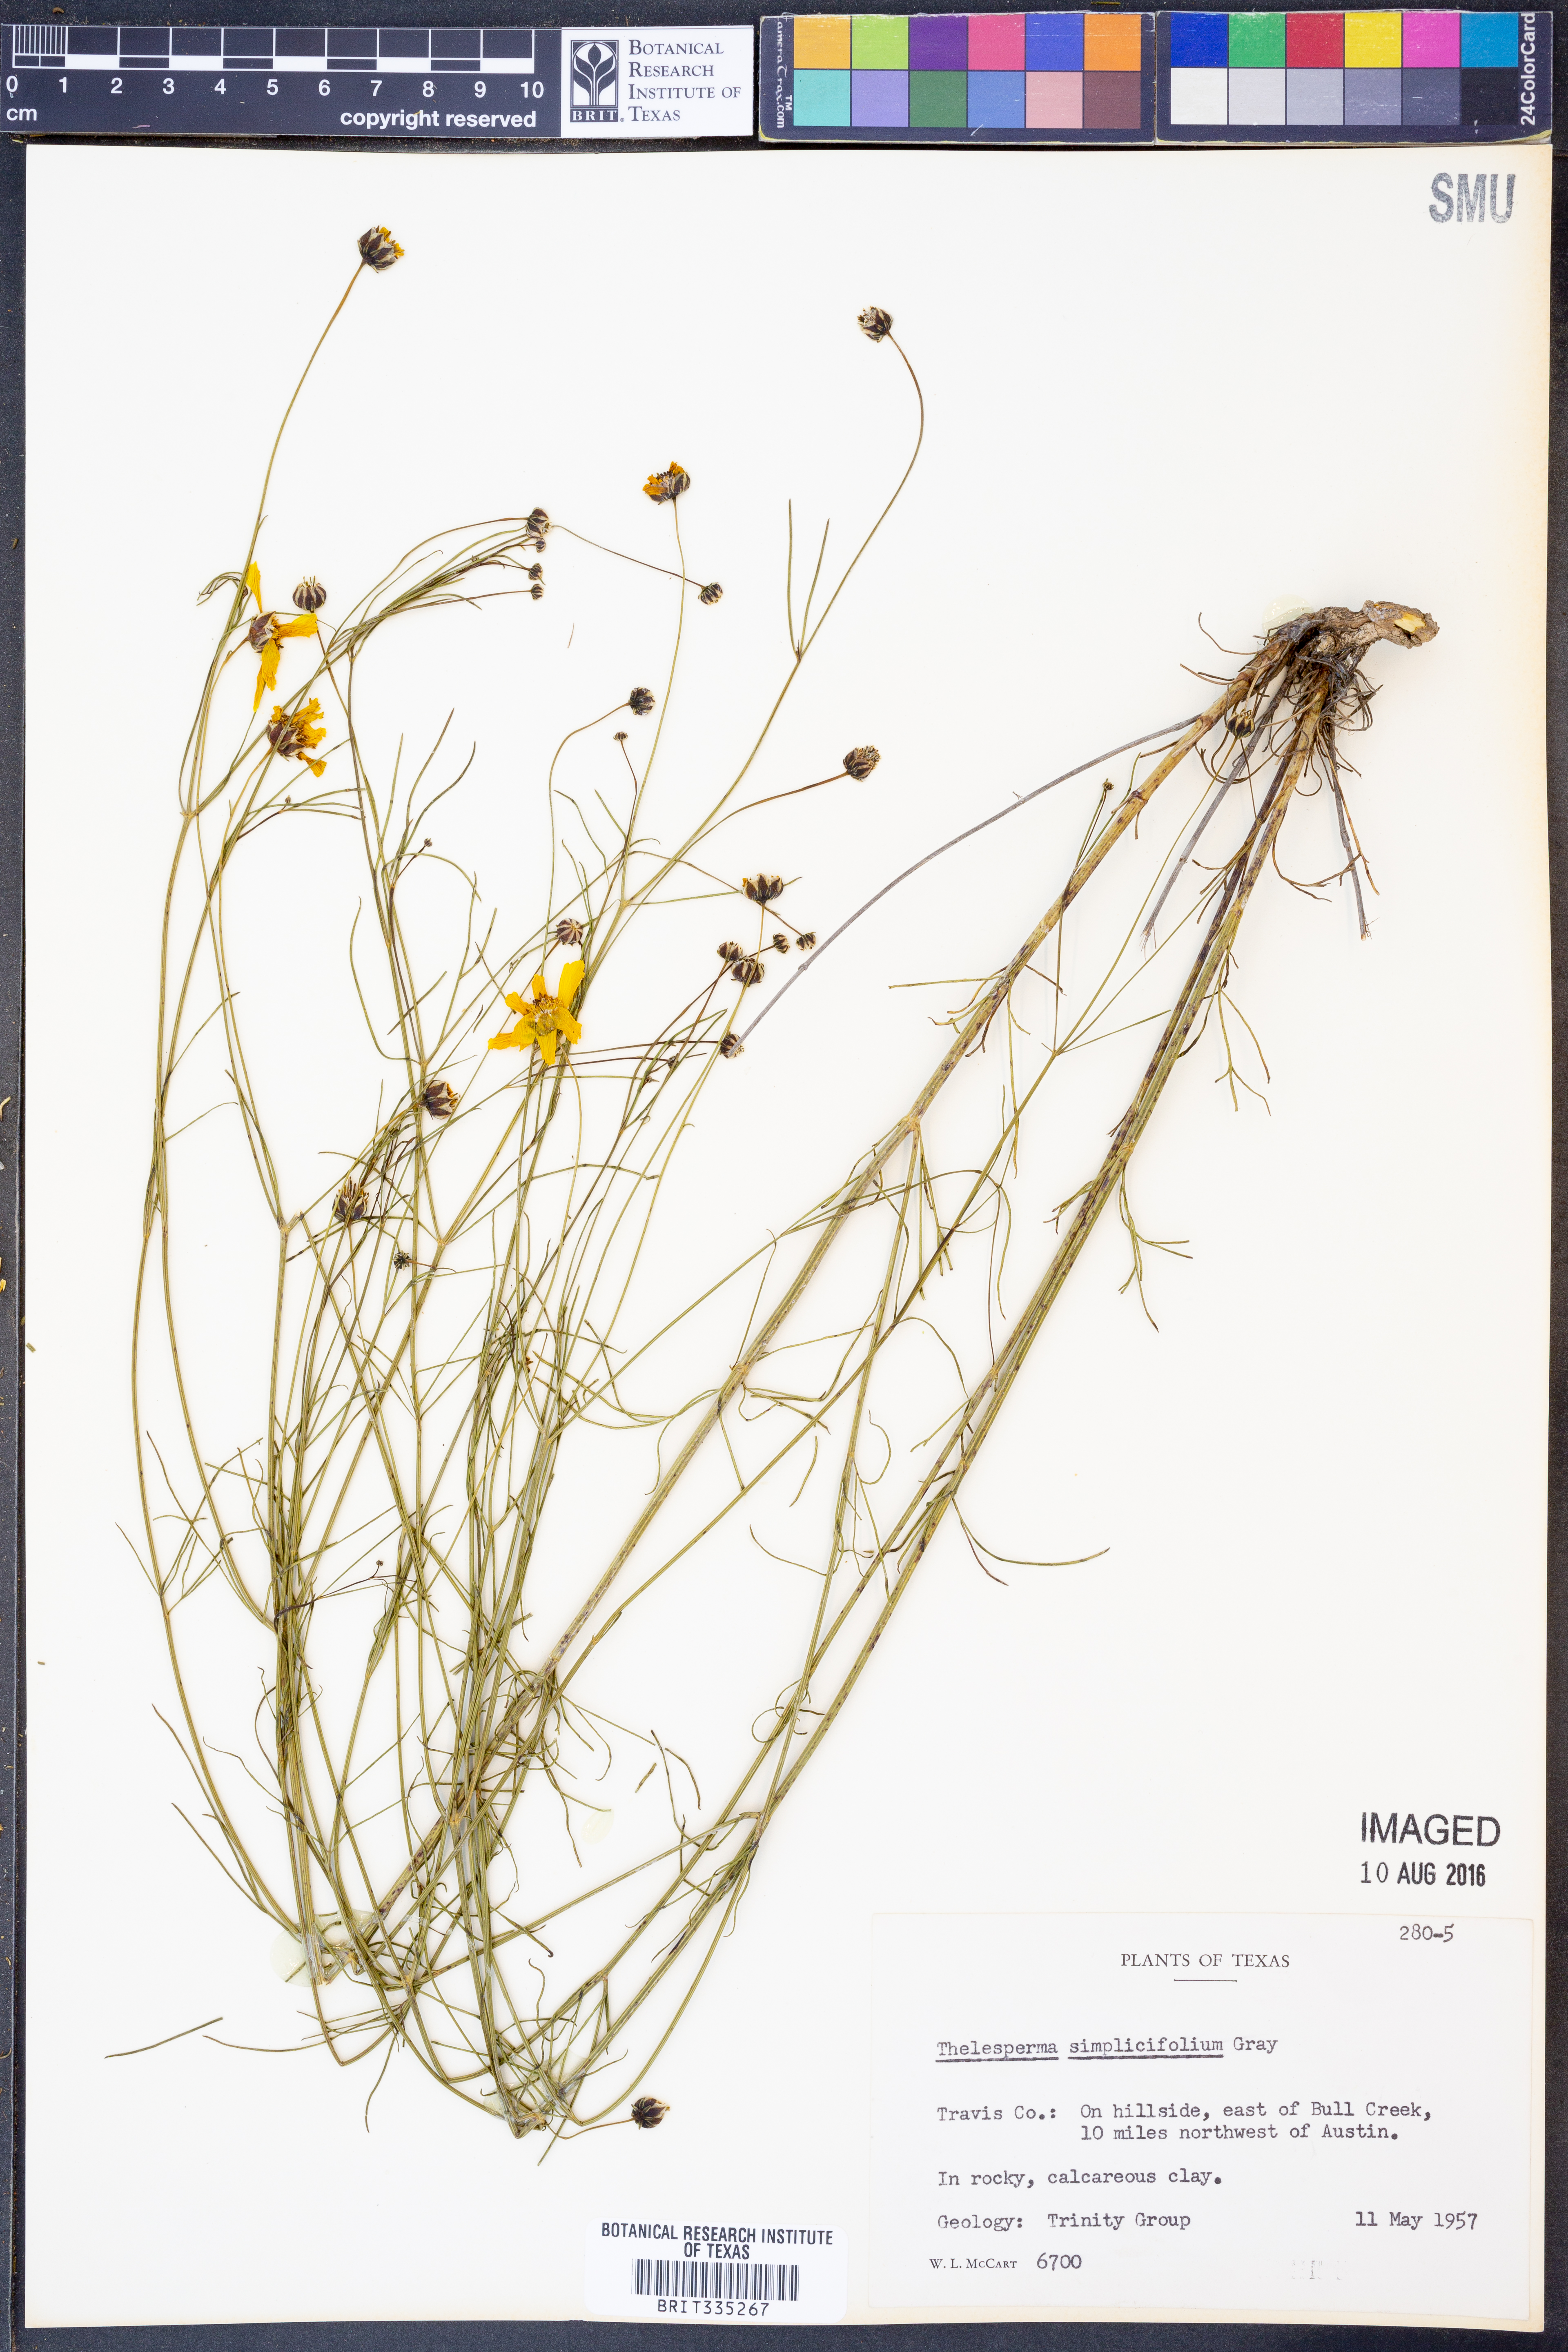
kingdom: Plantae
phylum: Tracheophyta
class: Magnoliopsida
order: Asterales
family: Asteraceae
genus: Thelesperma
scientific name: Thelesperma simplicifolium
